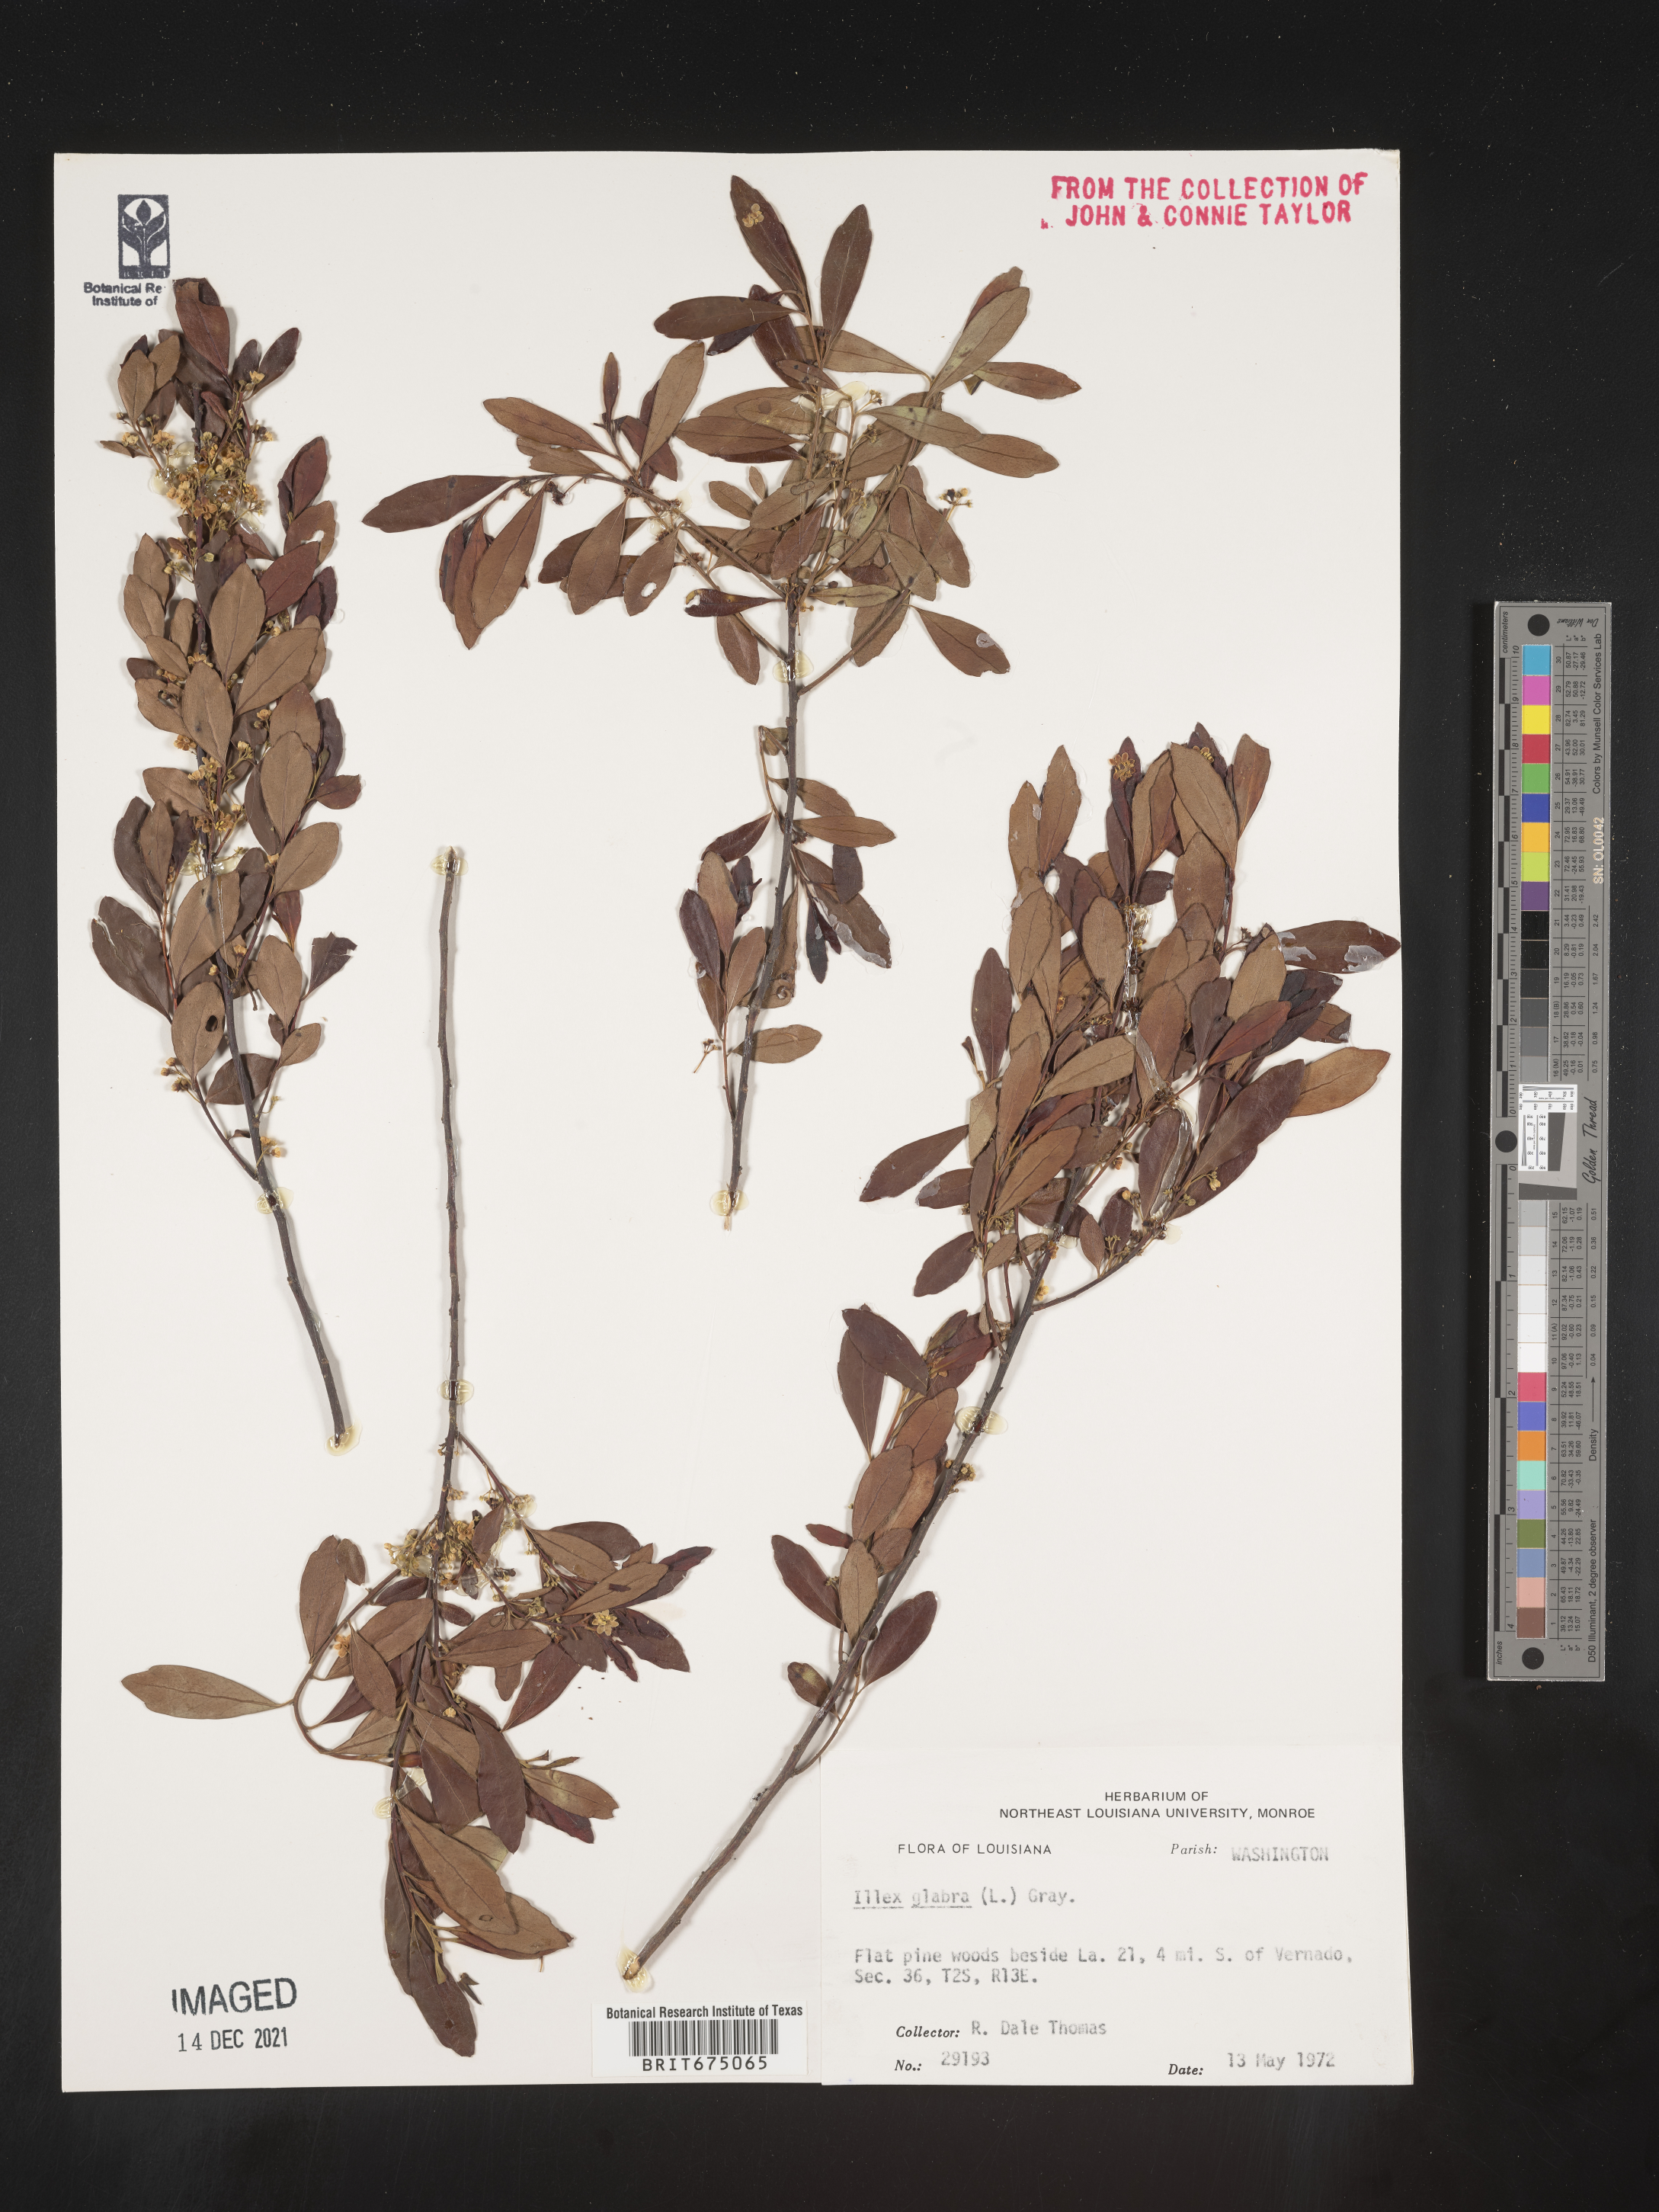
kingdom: Plantae
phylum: Tracheophyta
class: Magnoliopsida
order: Aquifoliales
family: Aquifoliaceae
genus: Ilex
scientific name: Ilex glabra
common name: Bitter gallberry
